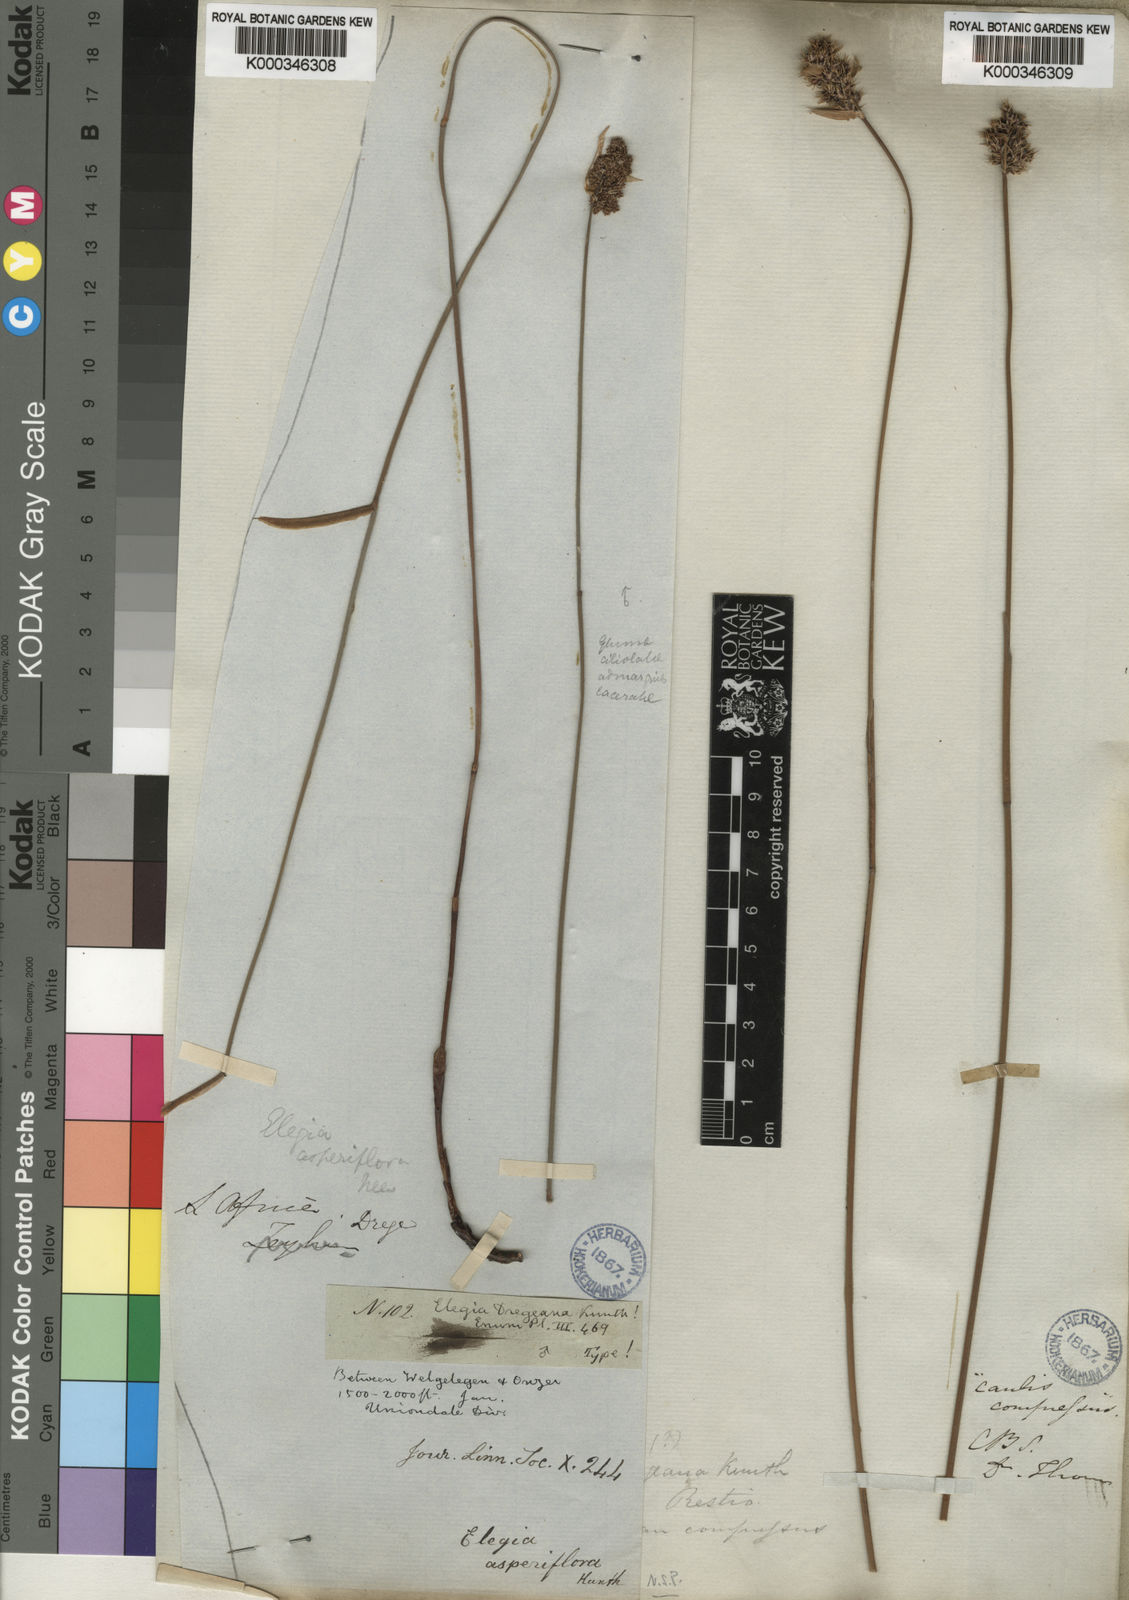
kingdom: Plantae
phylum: Tracheophyta
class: Liliopsida
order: Poales
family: Restionaceae
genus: Elegia
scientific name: Elegia asperiflora
